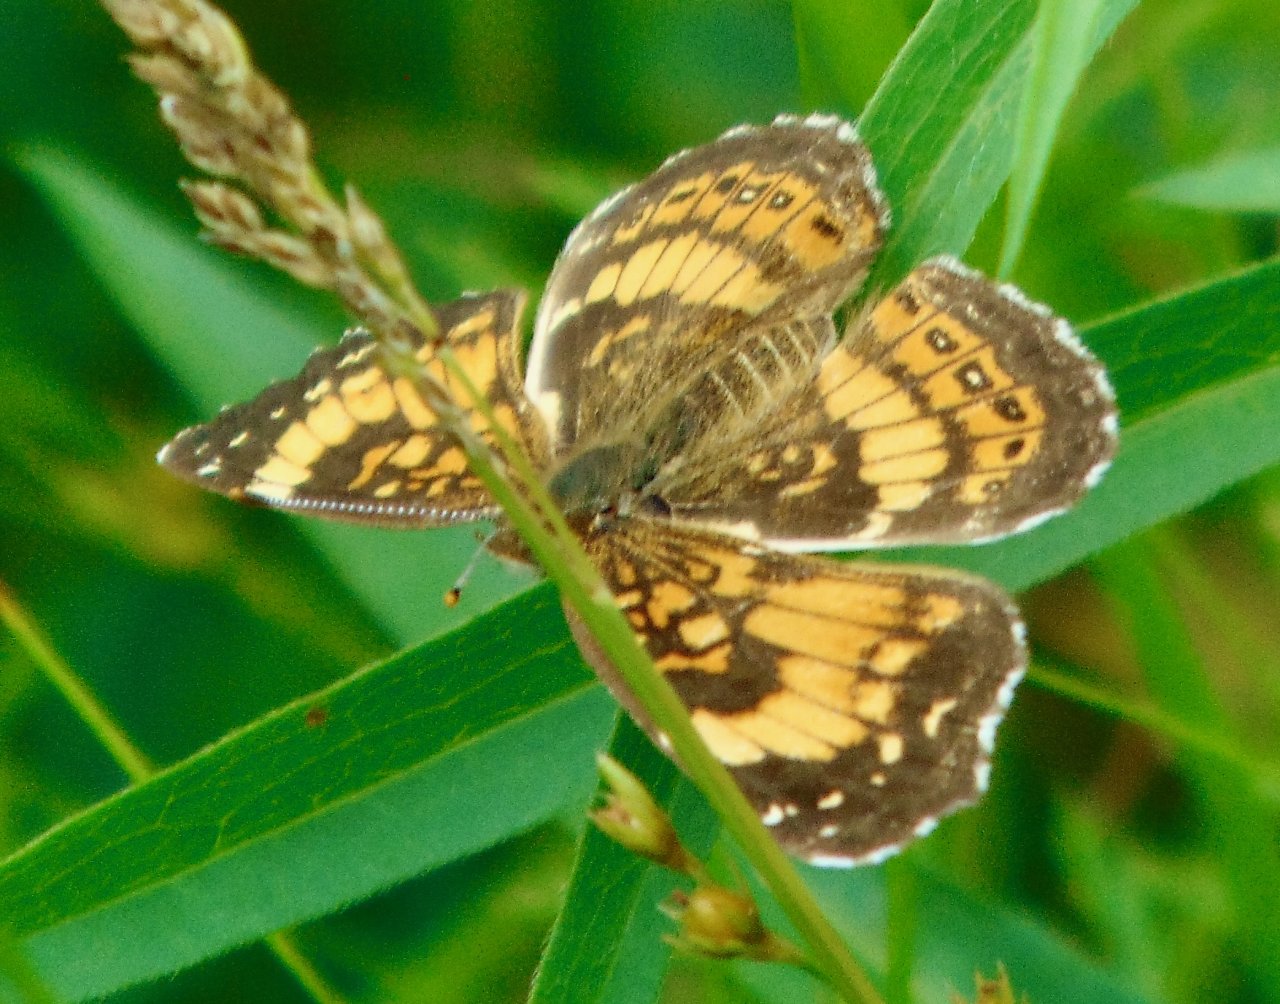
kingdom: Animalia
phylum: Arthropoda
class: Insecta
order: Lepidoptera
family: Nymphalidae
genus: Chlosyne
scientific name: Chlosyne nycteis
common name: Silvery Checkerspot
